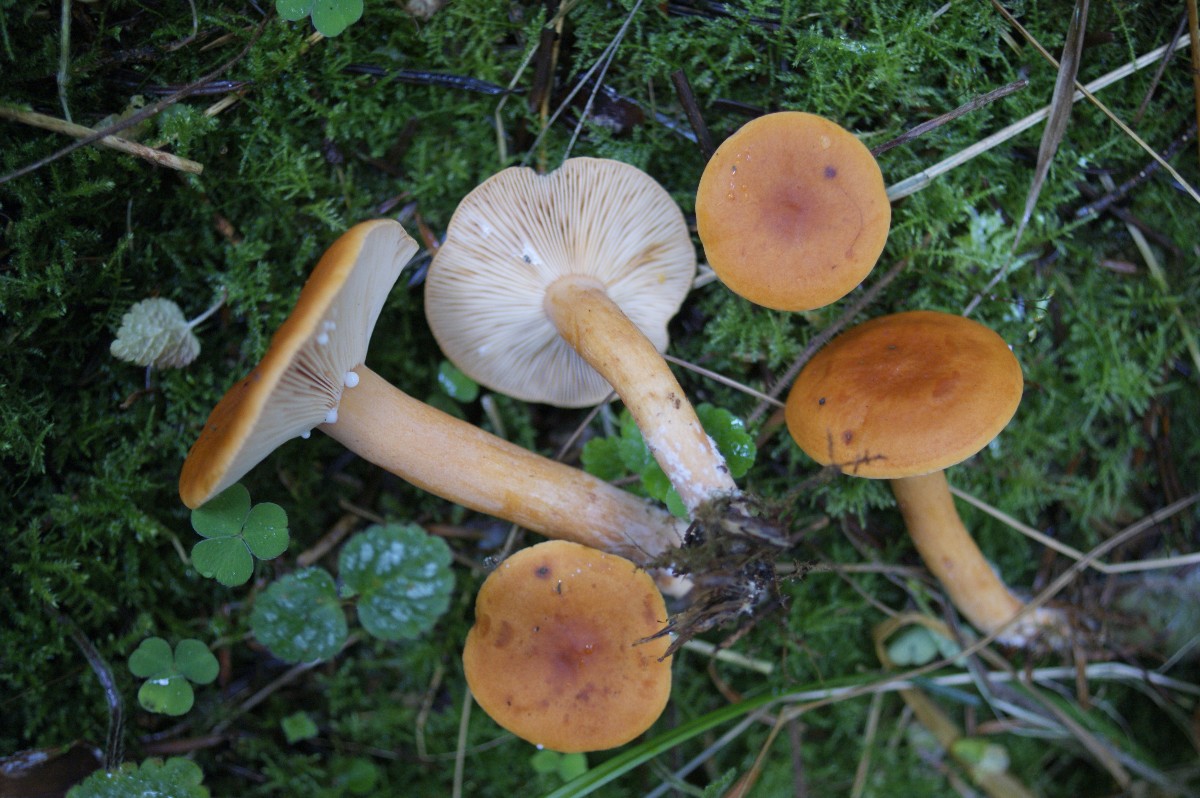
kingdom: Fungi
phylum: Basidiomycota
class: Agaricomycetes
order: Russulales
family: Russulaceae
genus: Lactarius
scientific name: Lactarius aurantiacus
